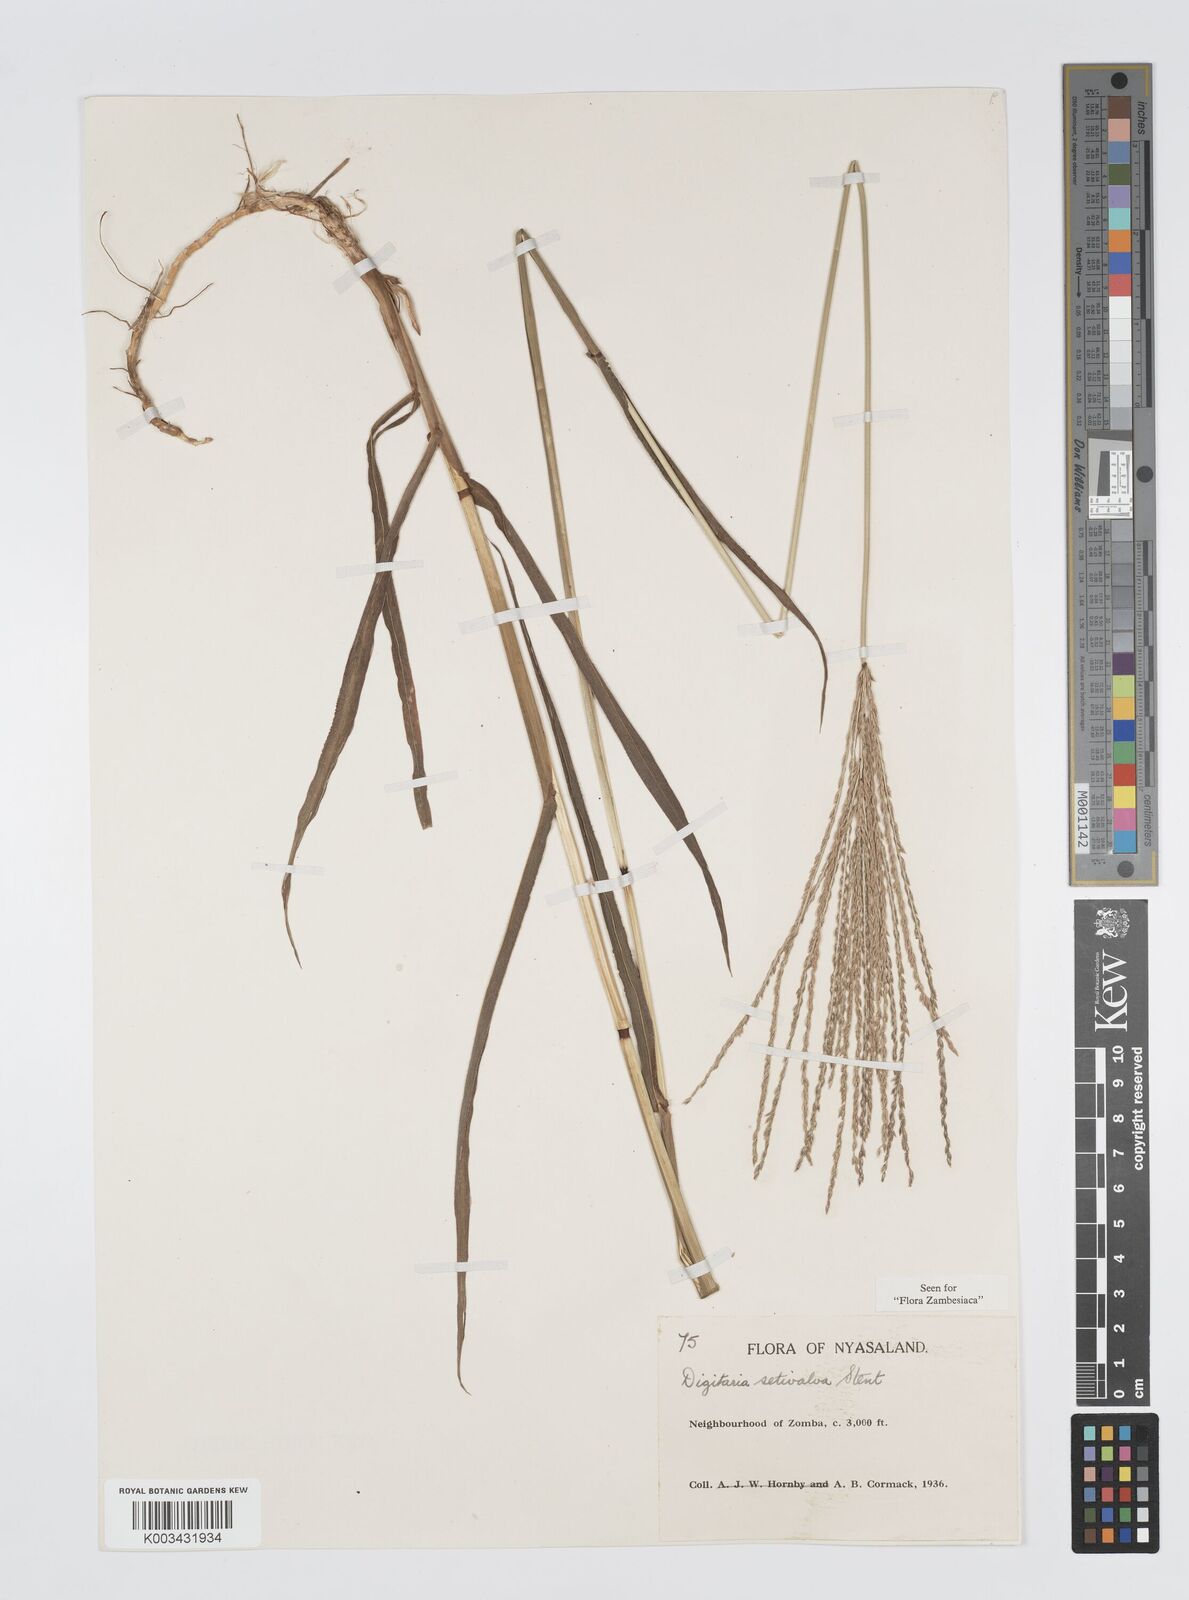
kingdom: Plantae
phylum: Tracheophyta
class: Liliopsida
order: Poales
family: Poaceae
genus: Digitaria
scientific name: Digitaria milanjiana
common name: Madagascar crabgrass
